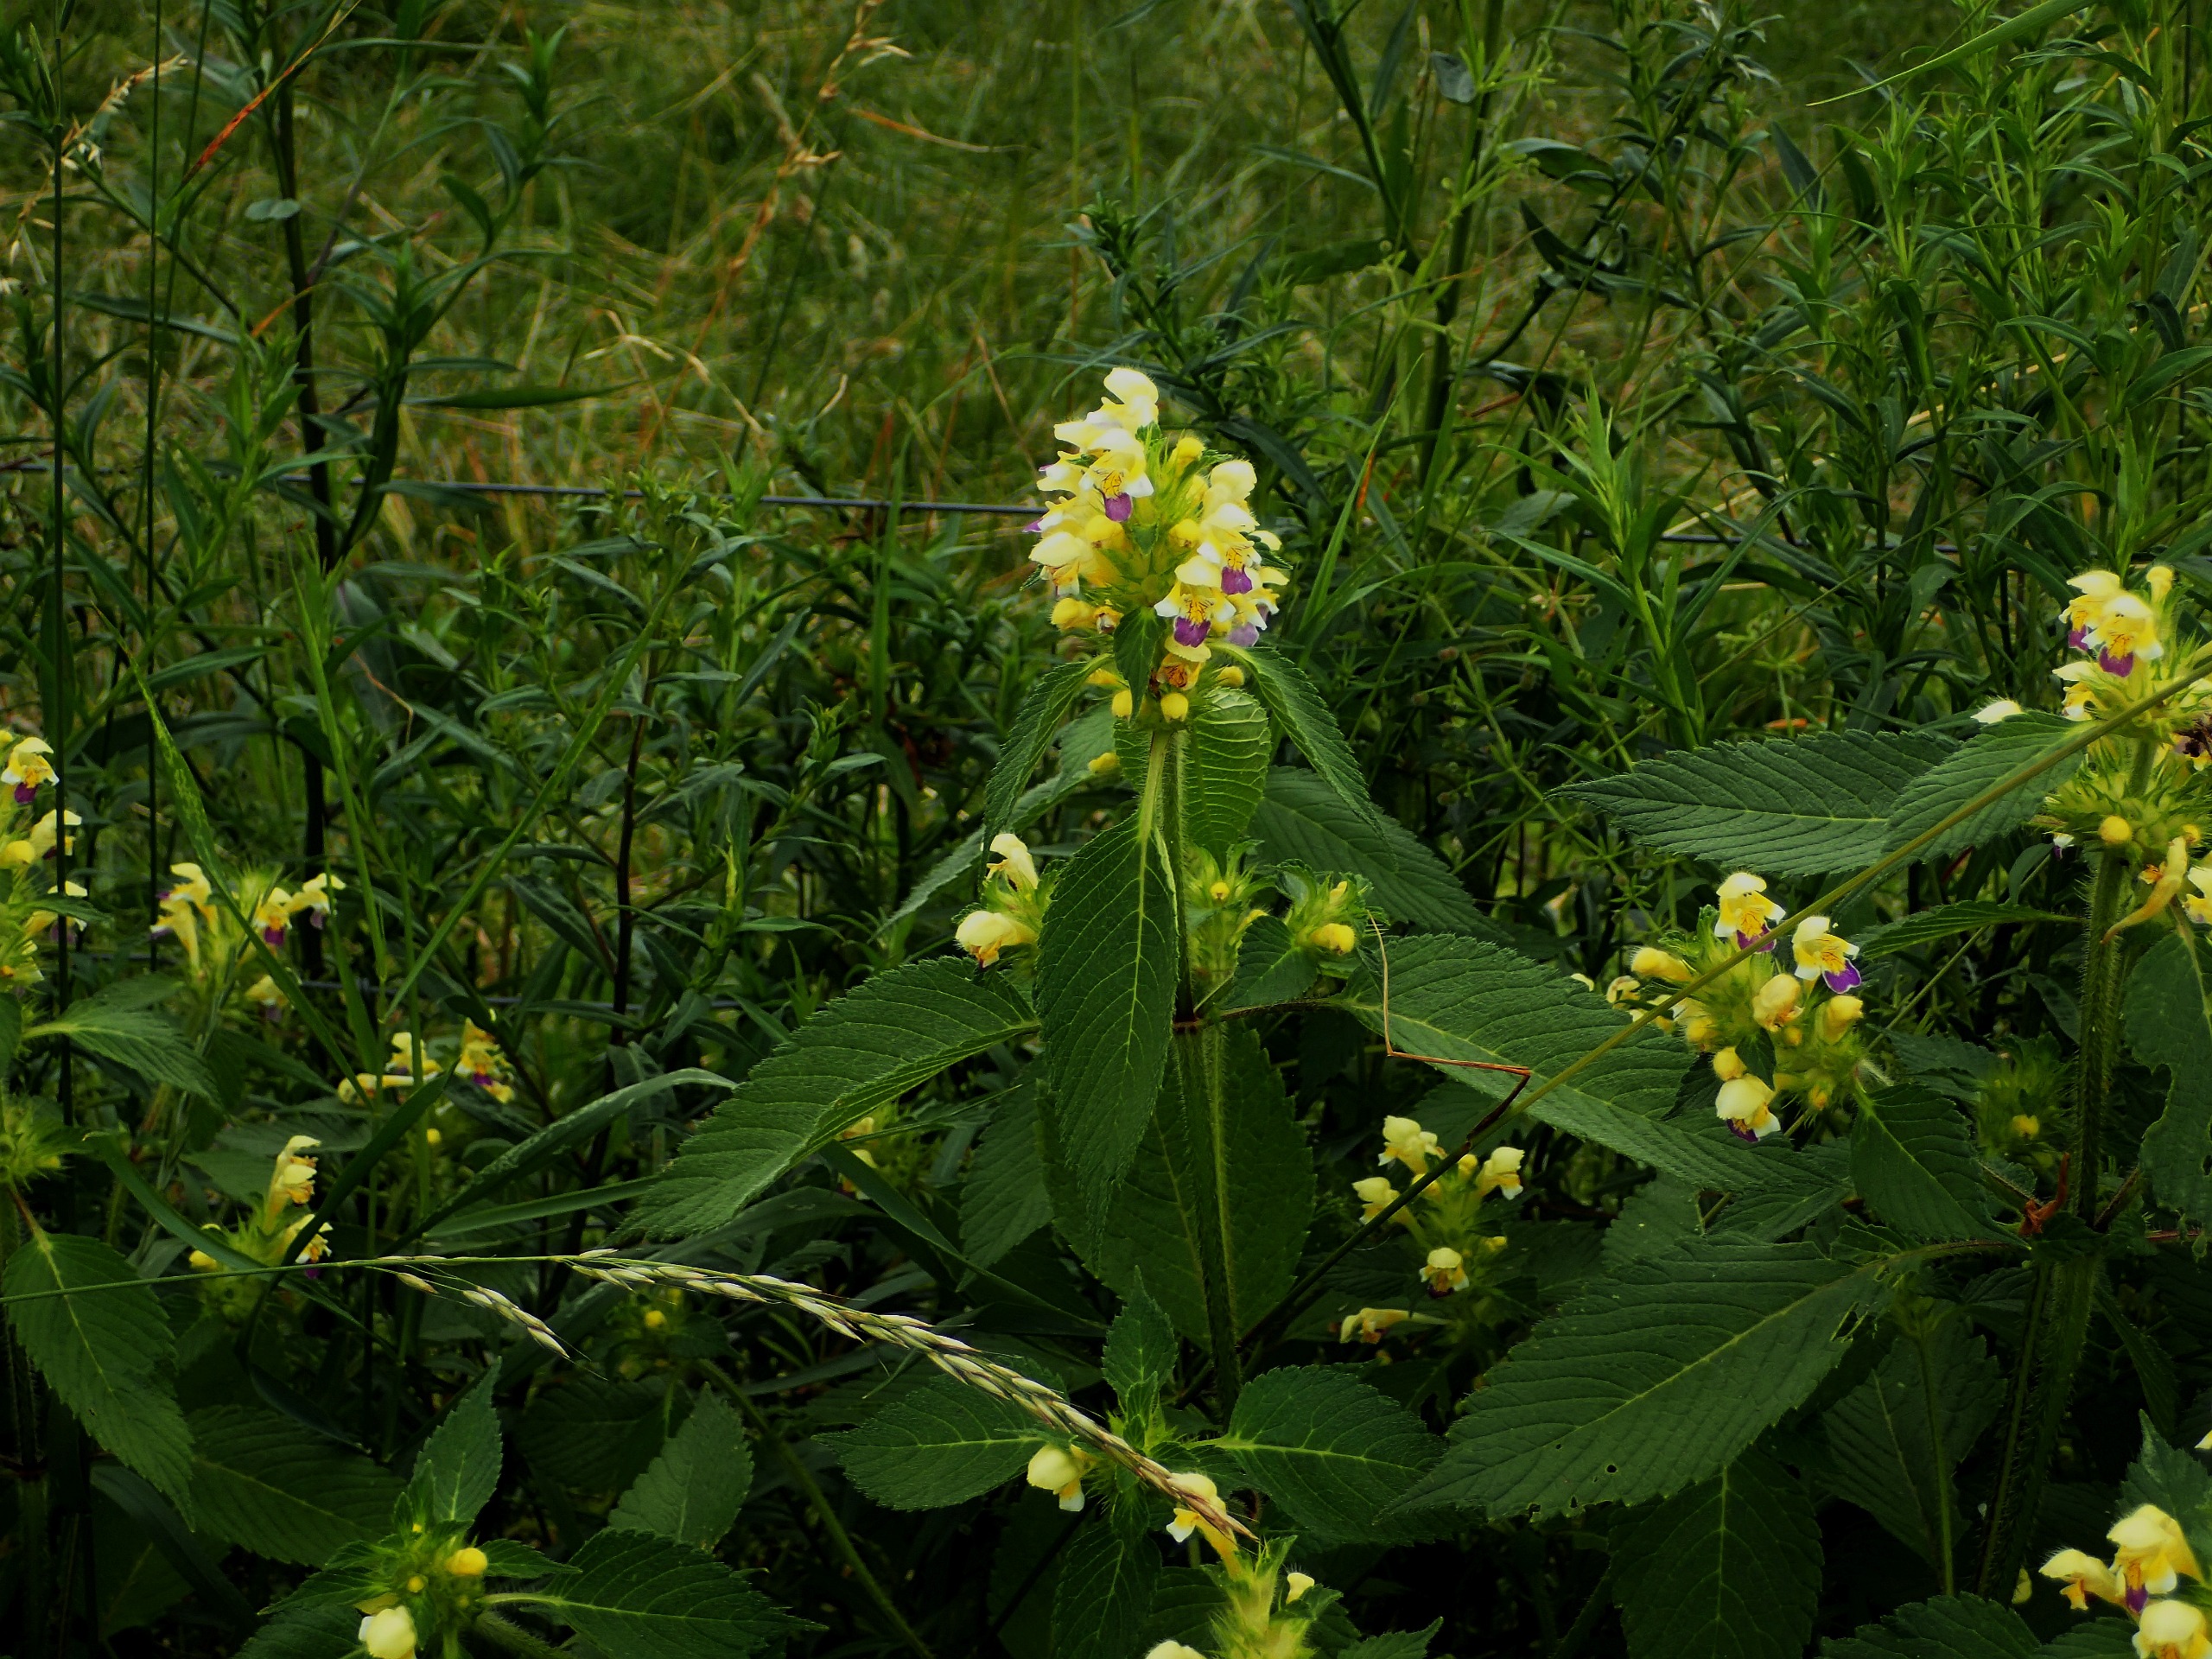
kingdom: Plantae
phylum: Tracheophyta
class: Magnoliopsida
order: Lamiales
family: Lamiaceae
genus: Galeopsis
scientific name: Galeopsis speciosa
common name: Hamp-hanekro
